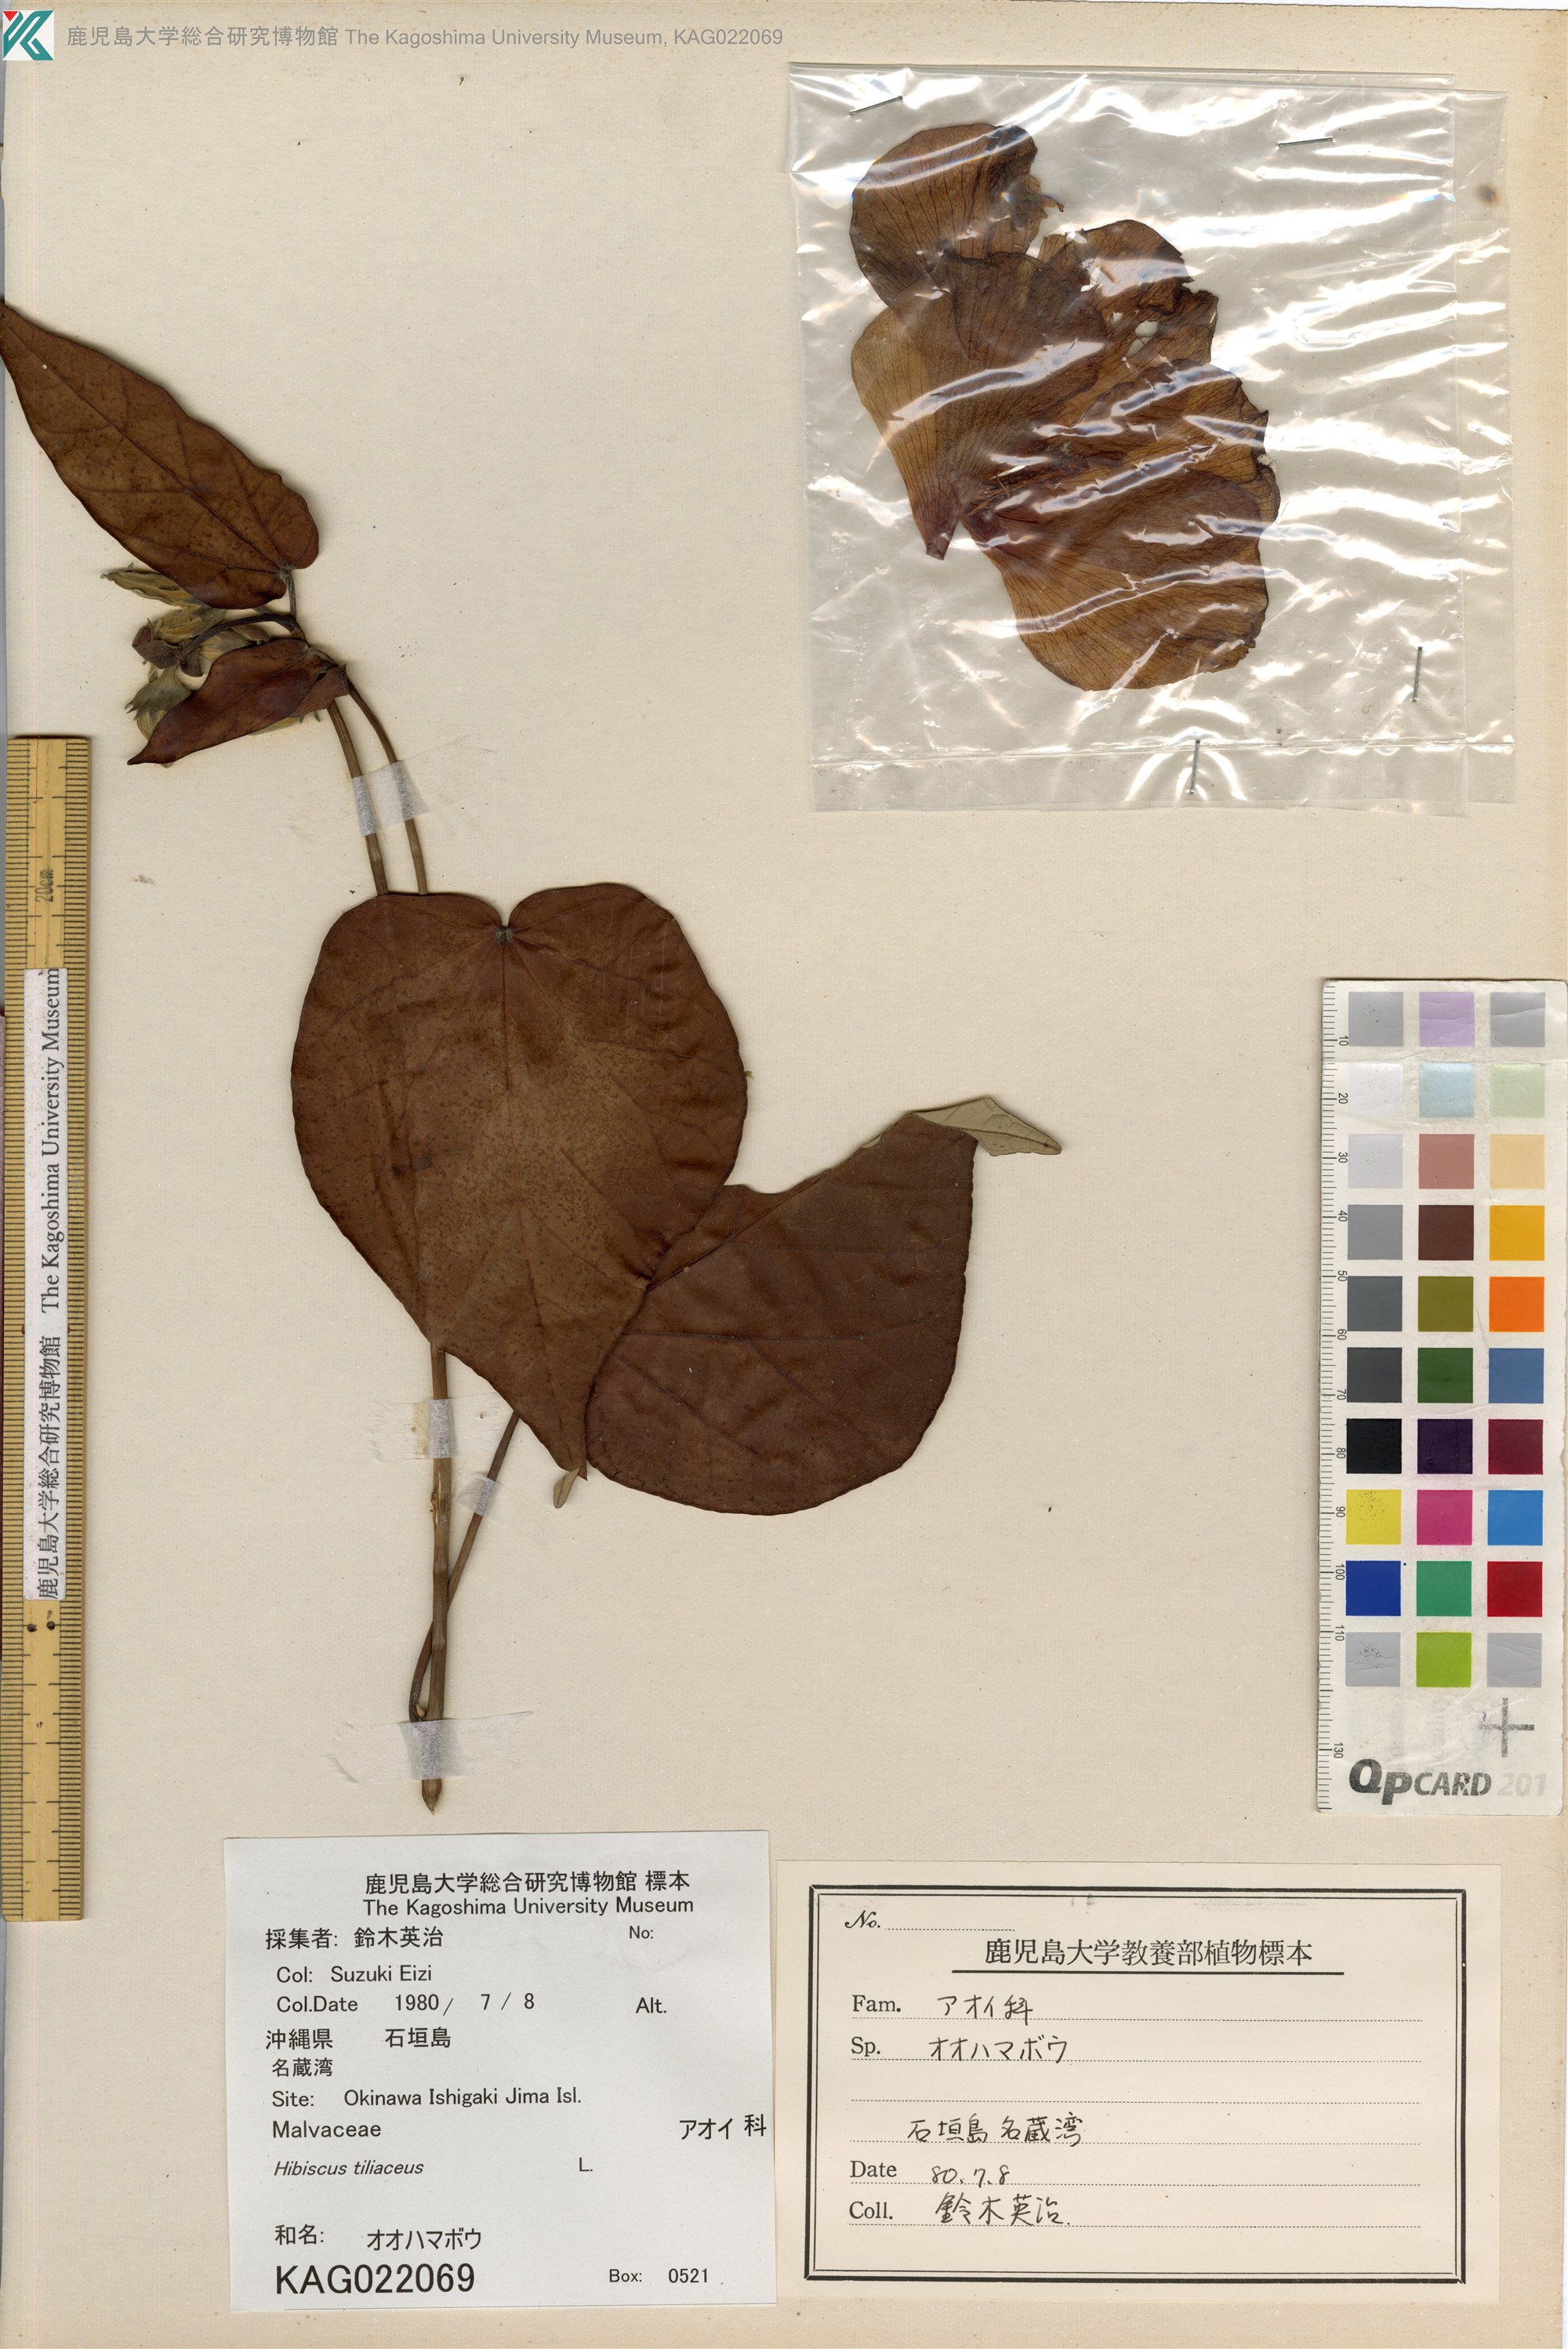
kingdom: Plantae
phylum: Tracheophyta
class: Magnoliopsida
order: Malvales
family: Malvaceae
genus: Thespesia
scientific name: Thespesia populnea
